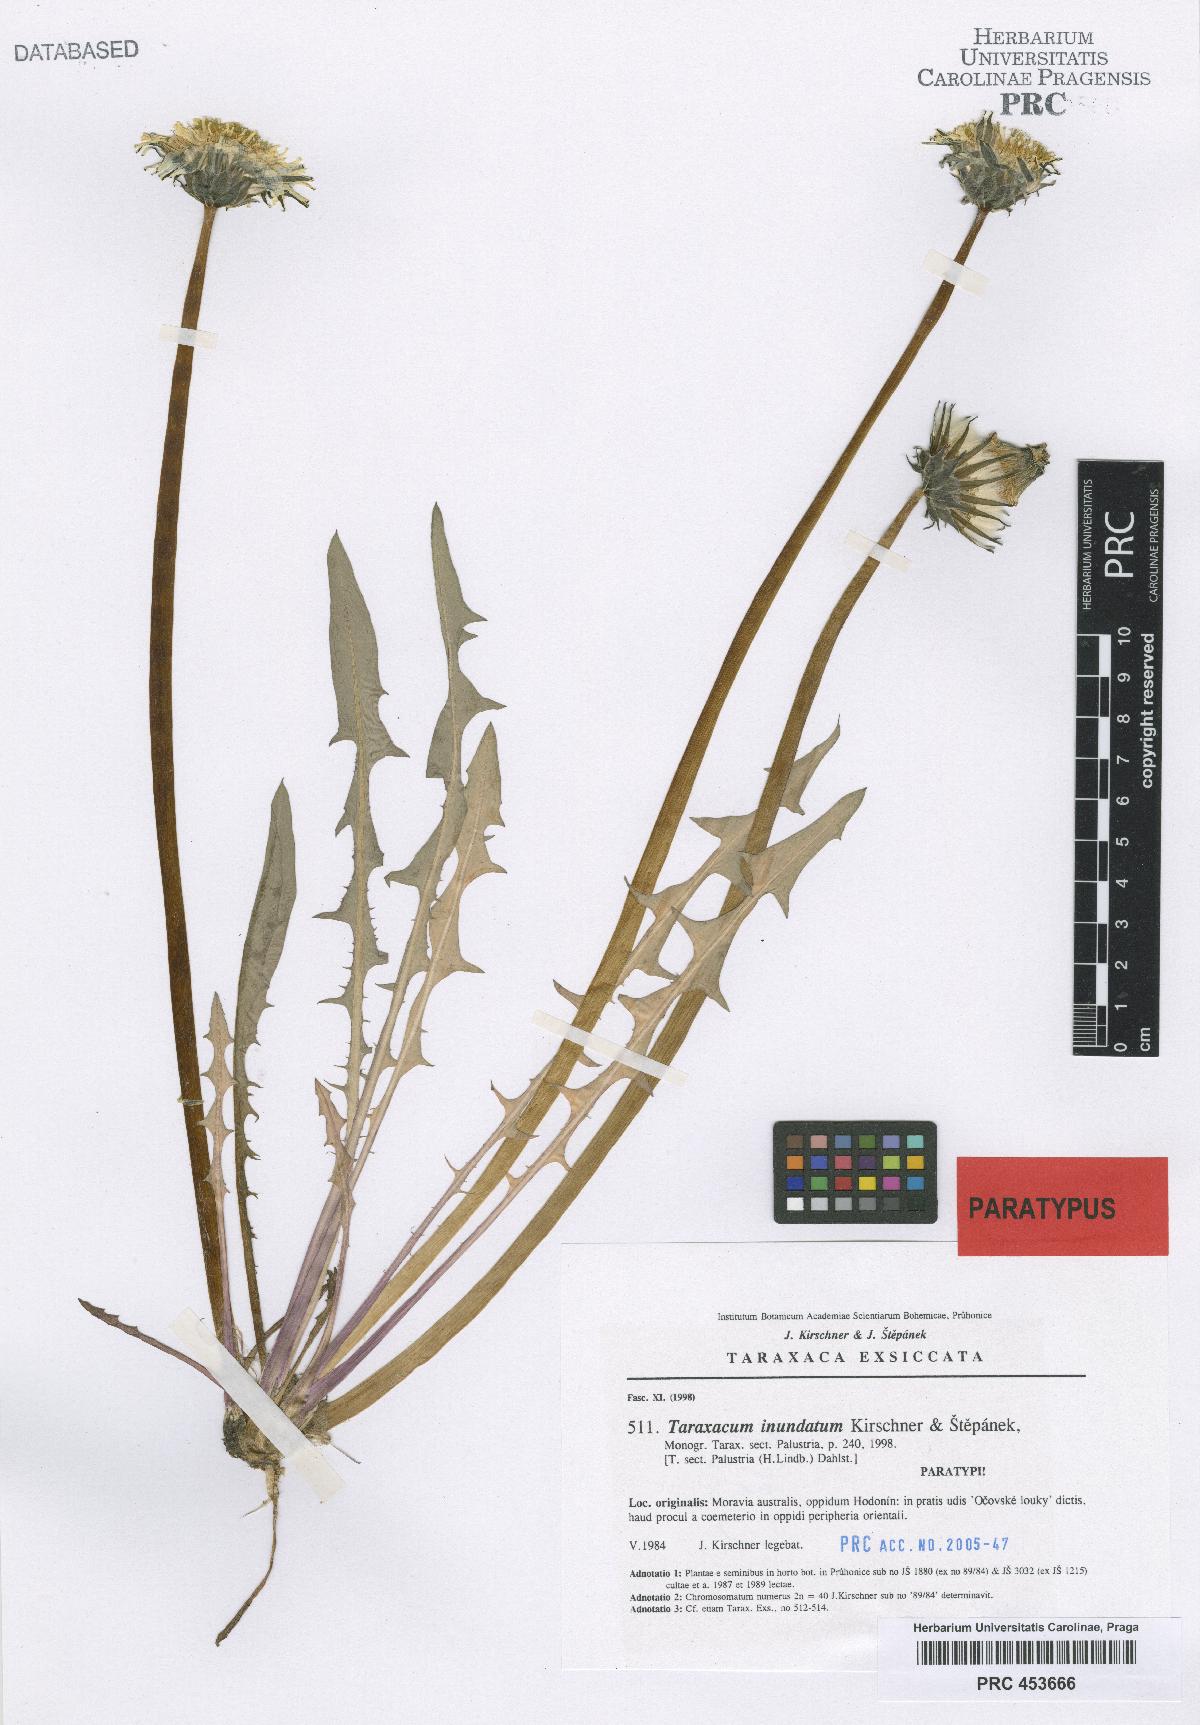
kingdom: Plantae
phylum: Tracheophyta
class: Magnoliopsida
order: Asterales
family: Asteraceae
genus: Taraxacum
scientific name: Taraxacum inundatum
